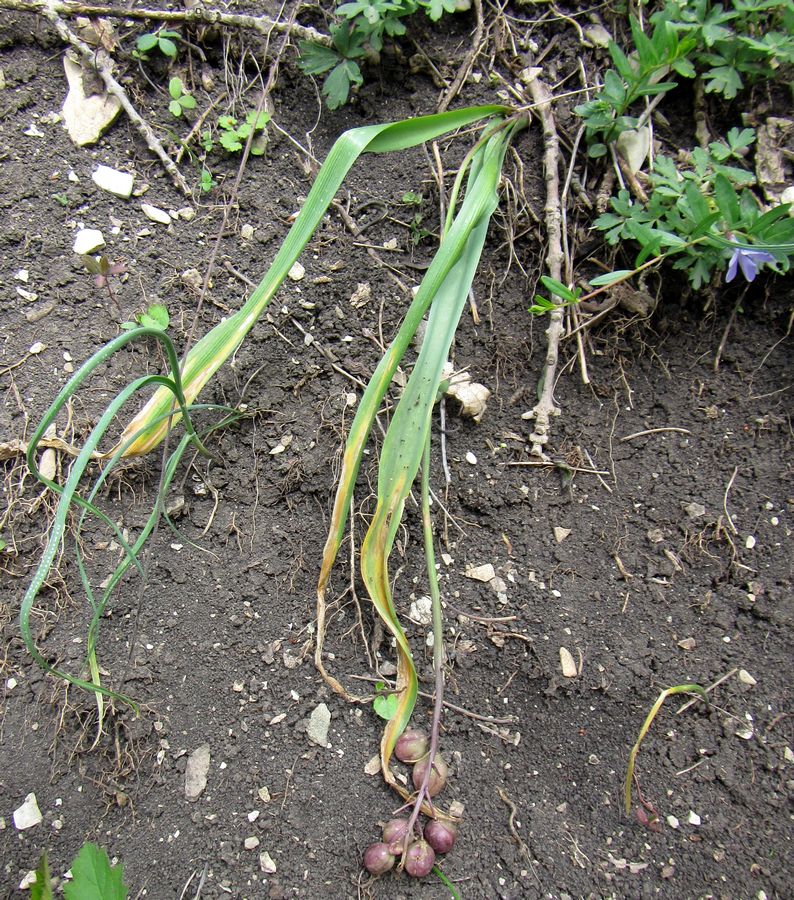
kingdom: Plantae
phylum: Tracheophyta
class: Liliopsida
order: Asparagales
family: Asparagaceae
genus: Scilla
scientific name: Scilla
